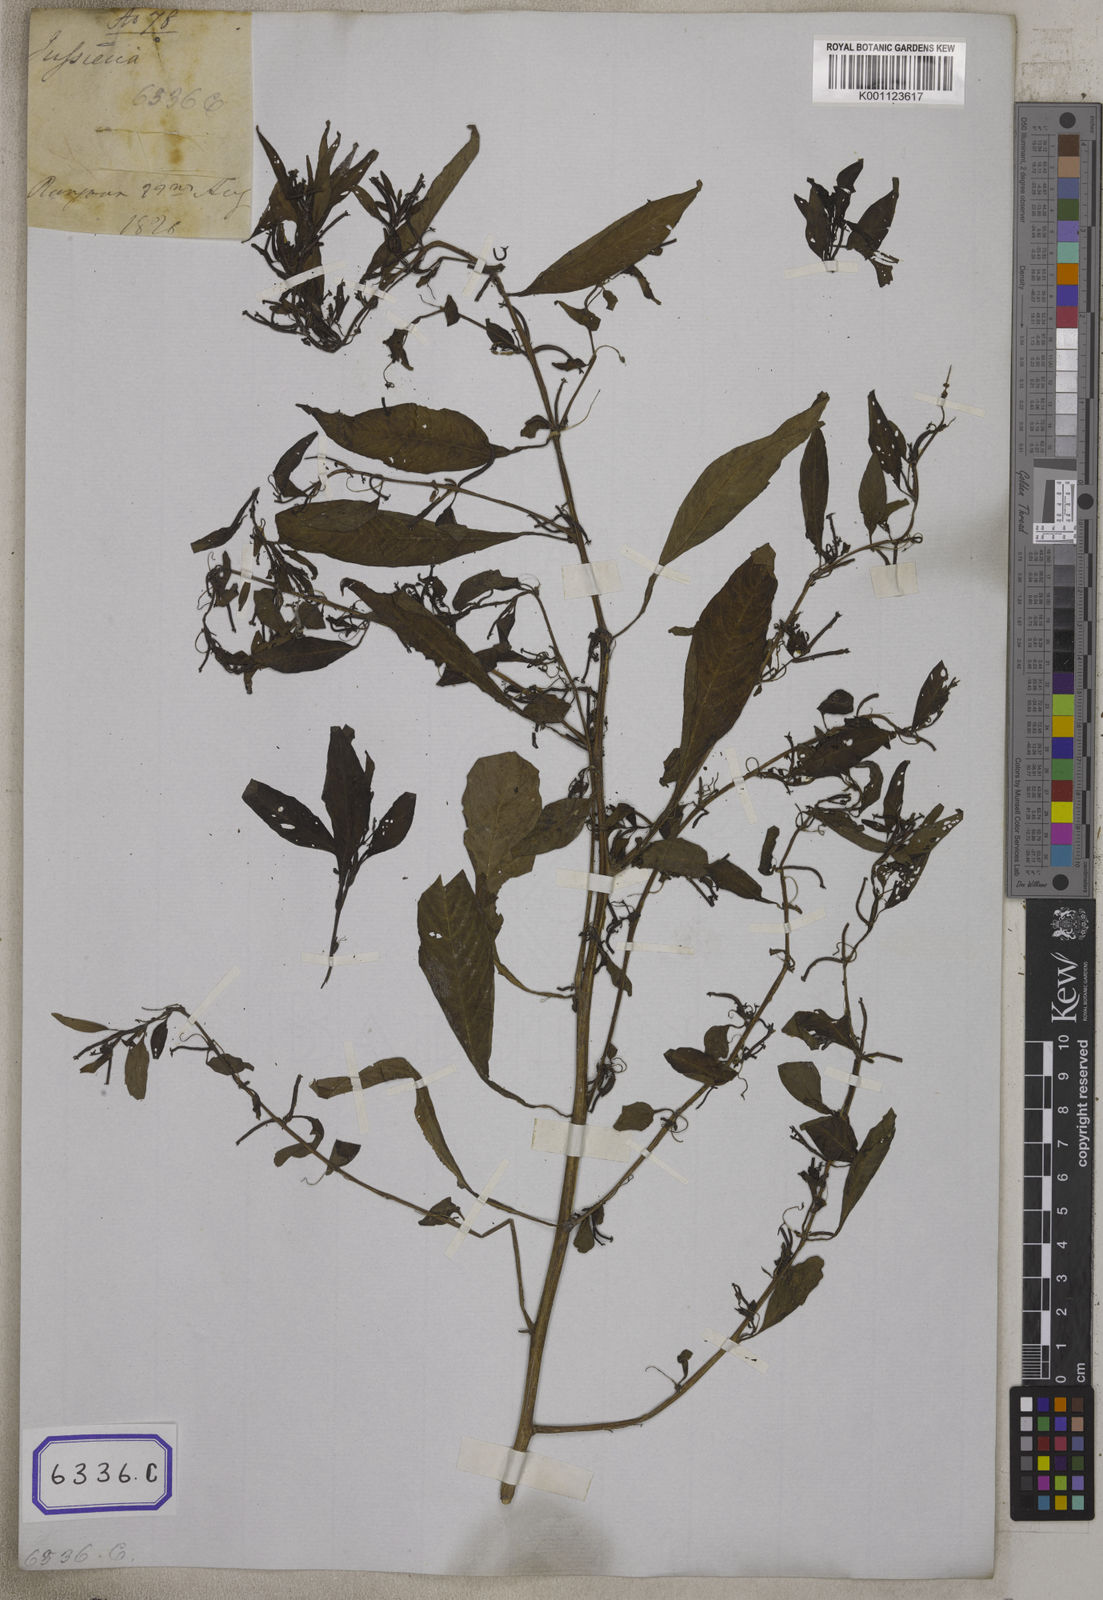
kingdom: Plantae
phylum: Tracheophyta
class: Magnoliopsida
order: Myrtales
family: Onagraceae
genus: Ludwigia
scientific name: Ludwigia prostrata
